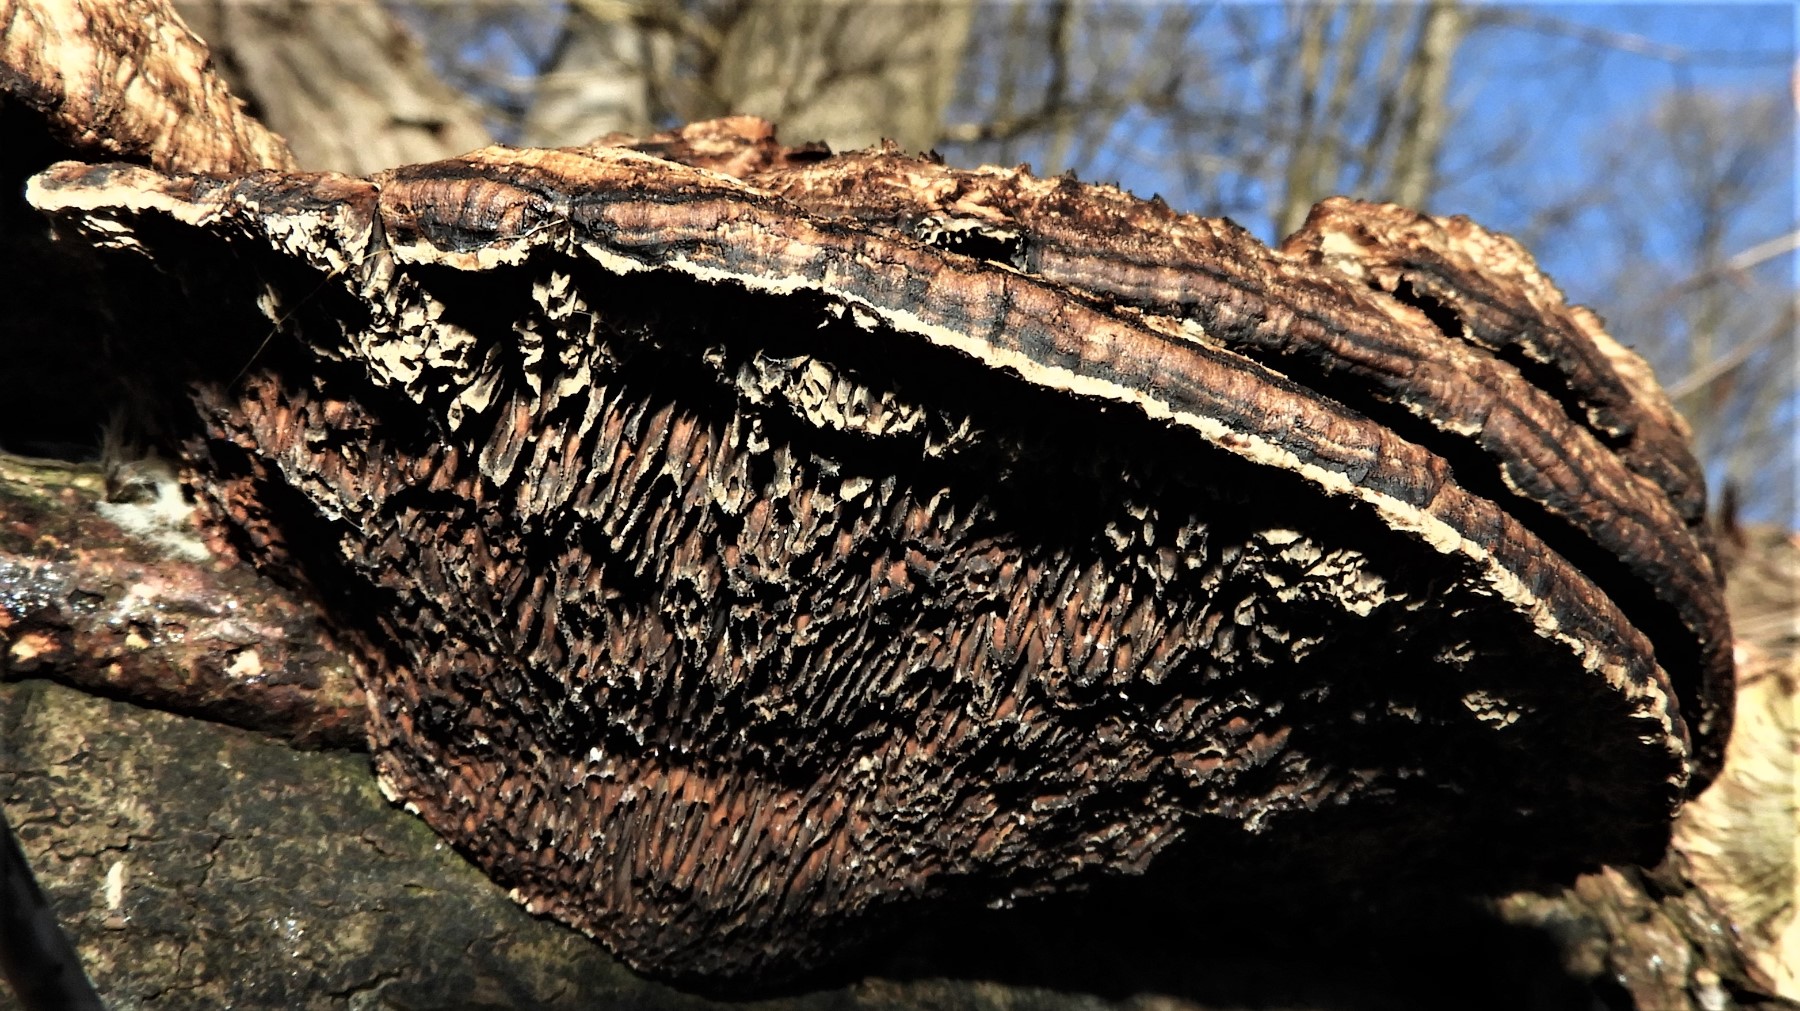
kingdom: Fungi
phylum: Basidiomycota
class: Agaricomycetes
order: Polyporales
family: Polyporaceae
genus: Daedaleopsis
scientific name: Daedaleopsis confragosa
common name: rødmende læderporesvamp
